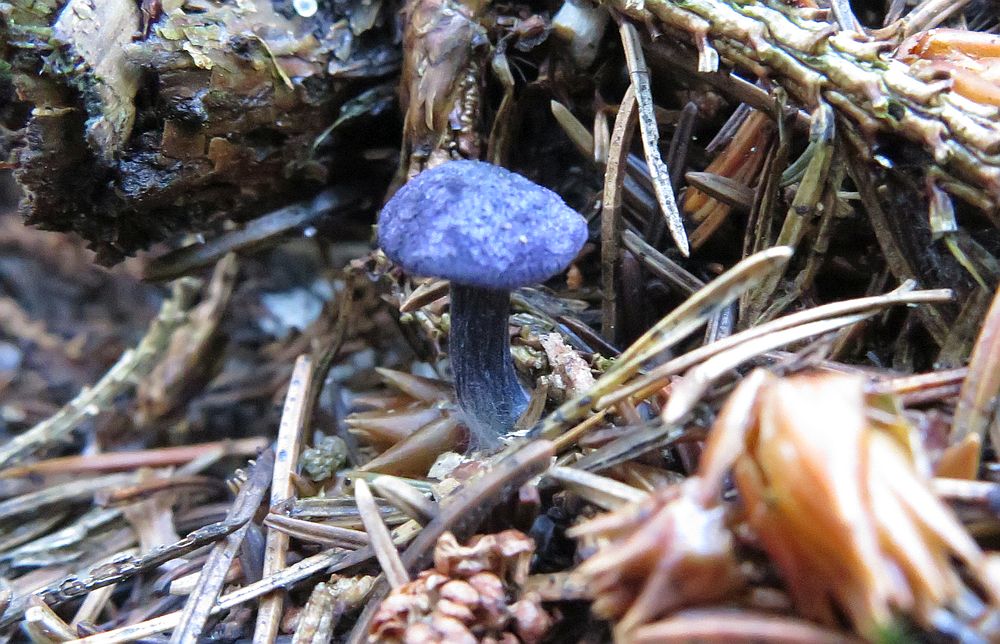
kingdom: Fungi
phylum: Basidiomycota
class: Agaricomycetes
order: Agaricales
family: Entolomataceae
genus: Entoloma
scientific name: Entoloma chytrophilum
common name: safir-rødblad
